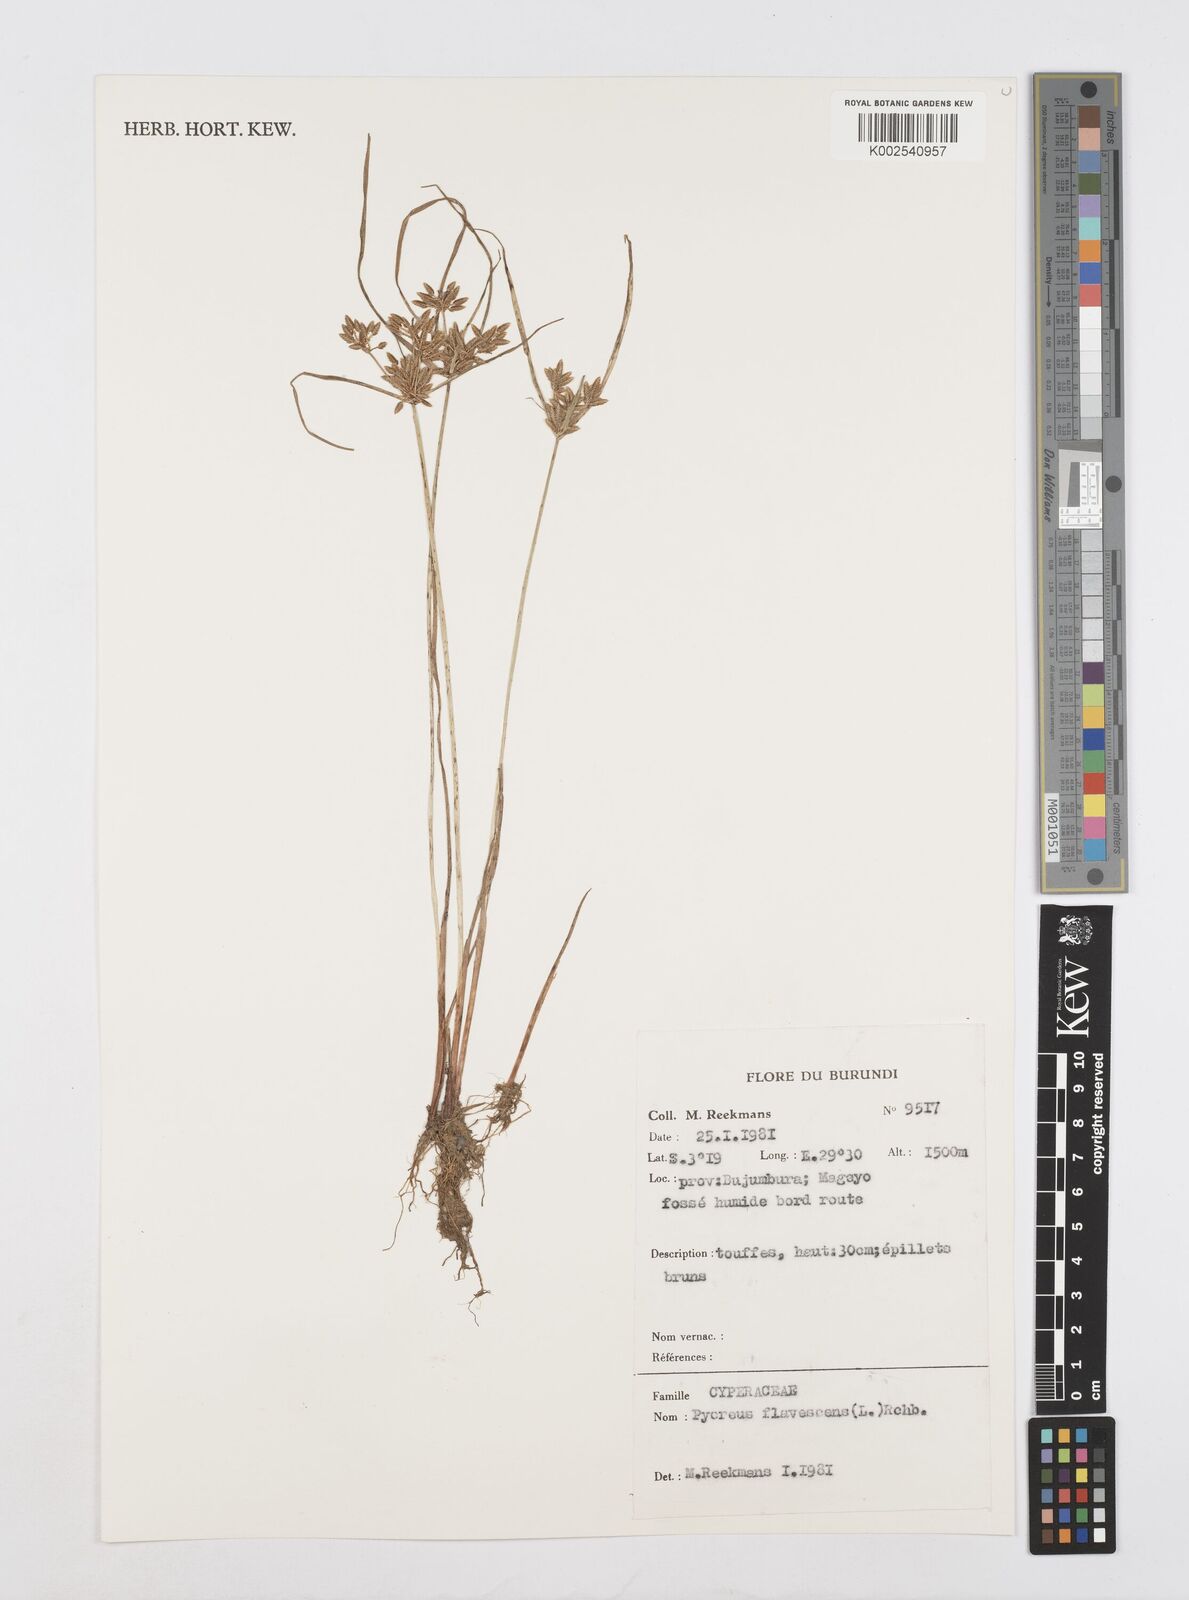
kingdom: Plantae
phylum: Tracheophyta
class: Liliopsida
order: Poales
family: Cyperaceae
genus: Cyperus
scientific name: Cyperus flavescens
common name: Yellow galingale
